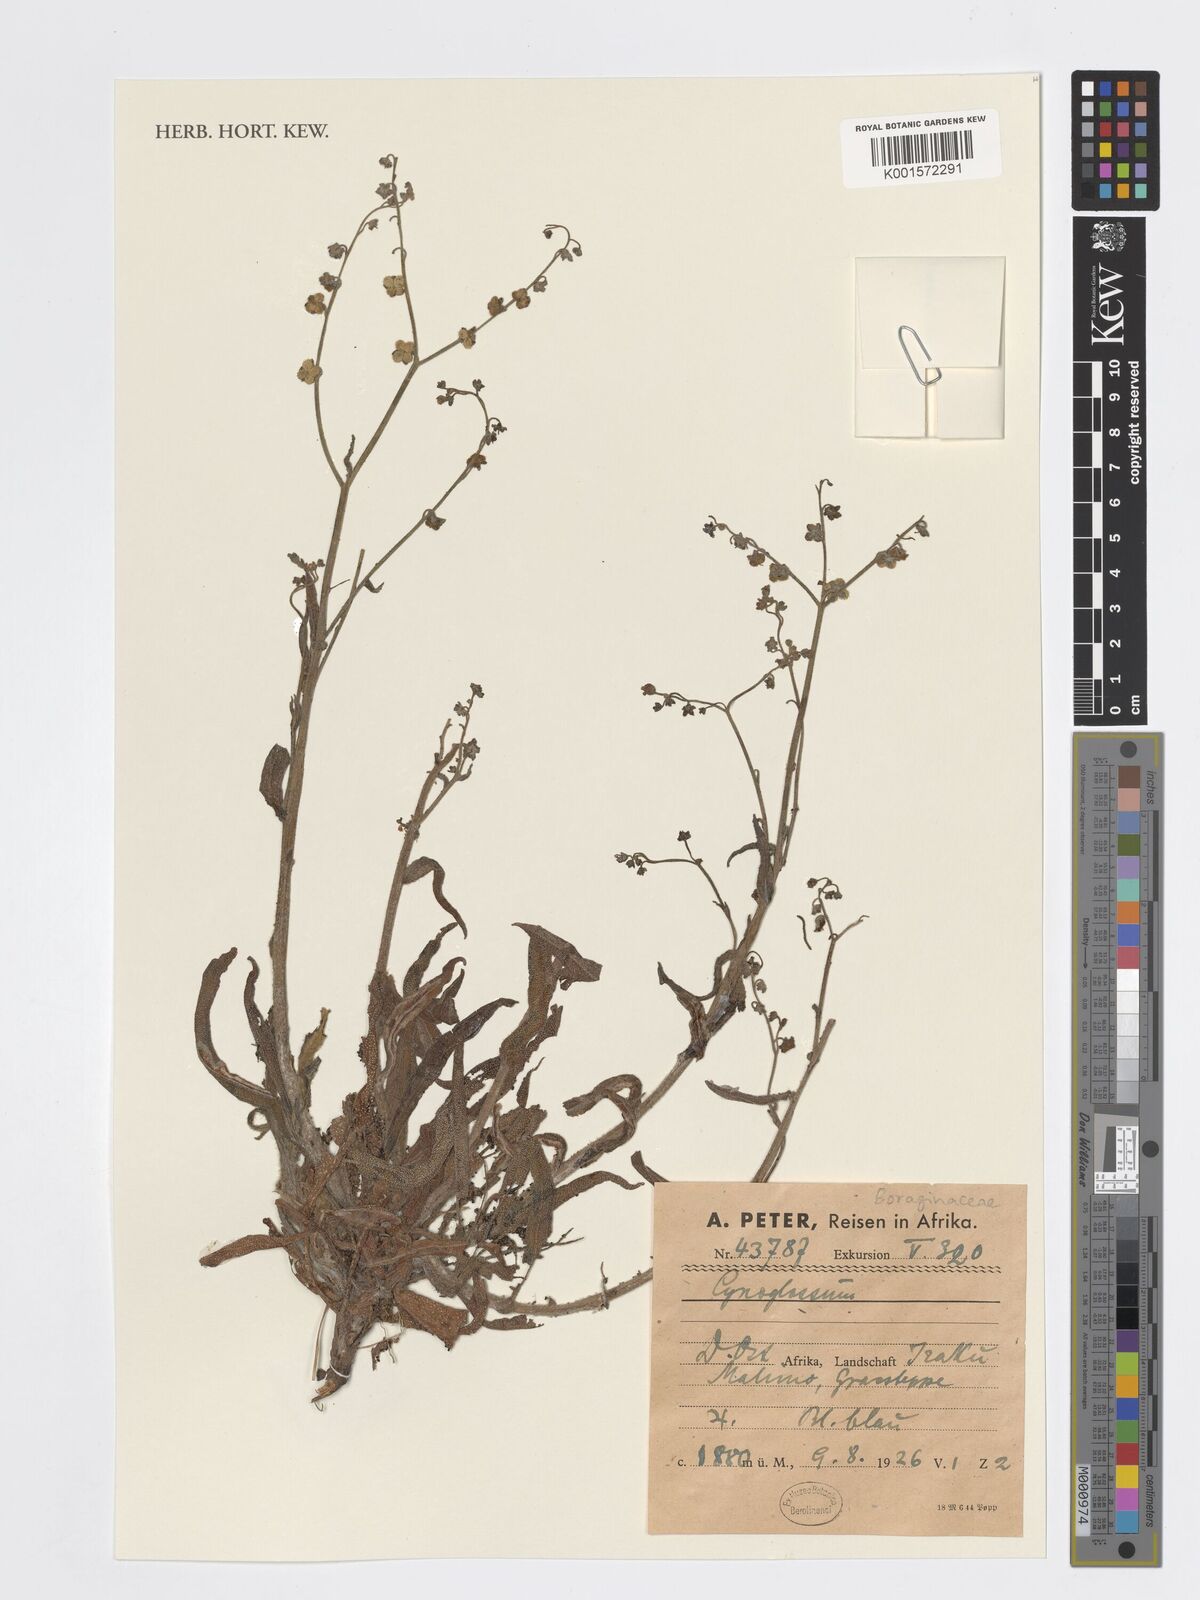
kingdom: Plantae
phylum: Tracheophyta
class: Magnoliopsida
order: Boraginales
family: Boraginaceae
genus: Cynoglossum
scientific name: Cynoglossum
